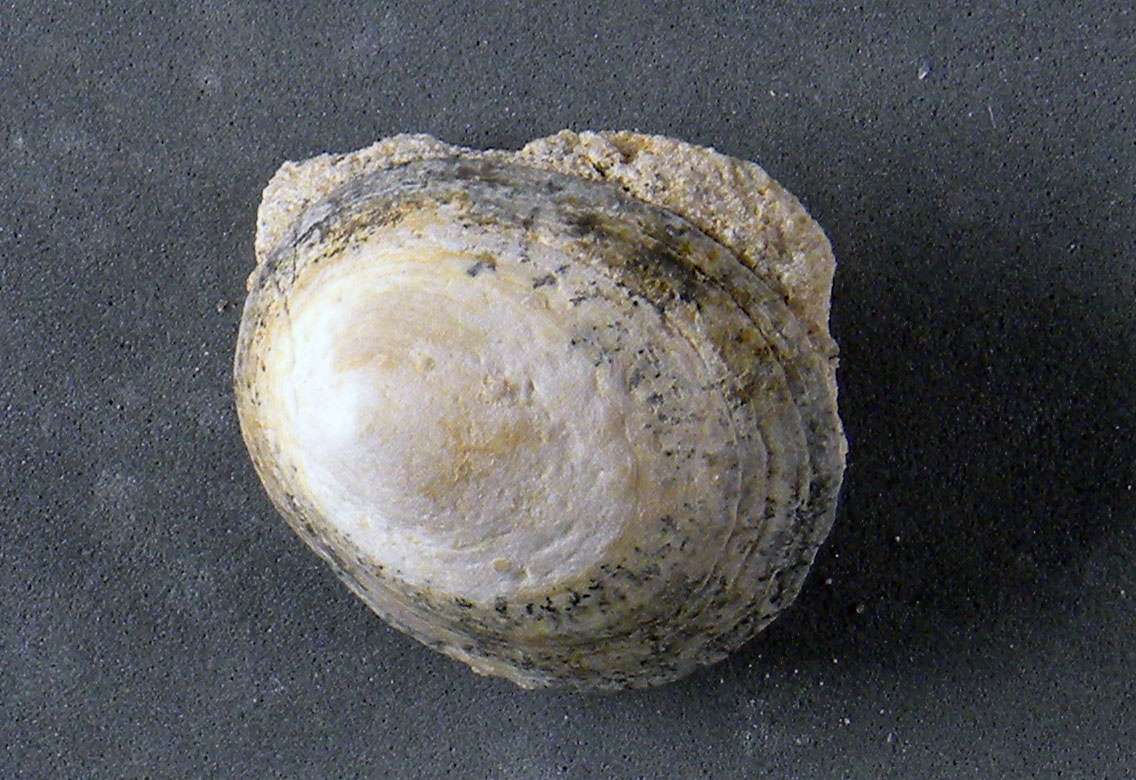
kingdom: Animalia
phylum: Mollusca
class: Gastropoda
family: Acmaeadae
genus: Scurriopsis
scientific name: Scurriopsis
